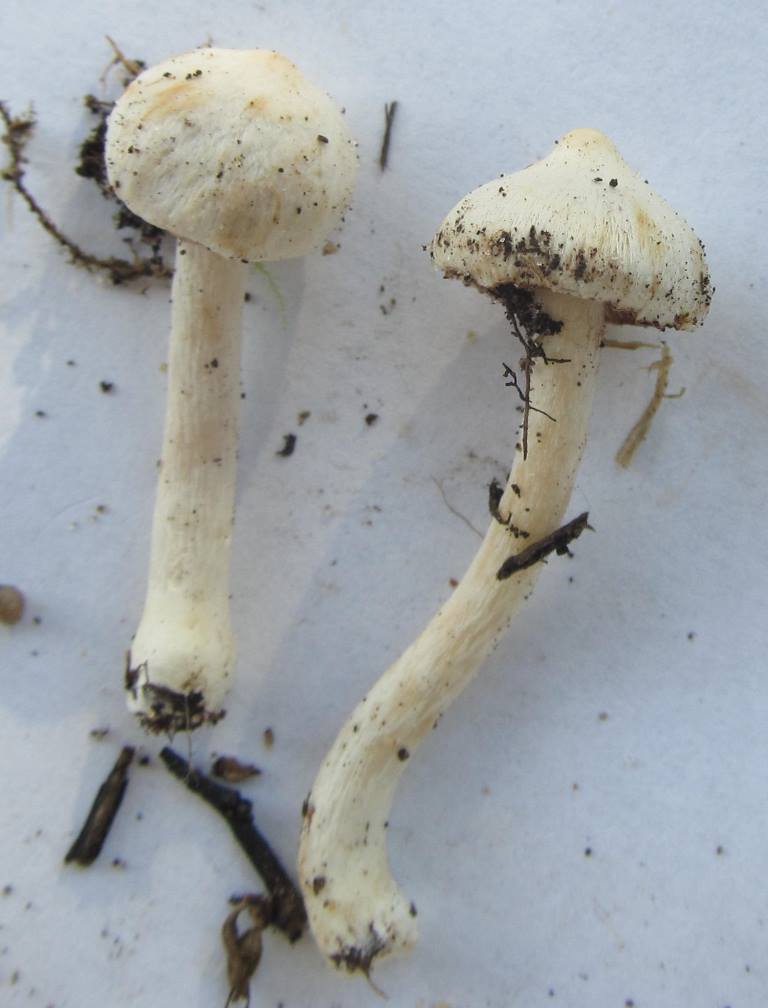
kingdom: Fungi
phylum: Basidiomycota
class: Agaricomycetes
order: Agaricales
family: Inocybaceae
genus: Inocybe
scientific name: Inocybe
